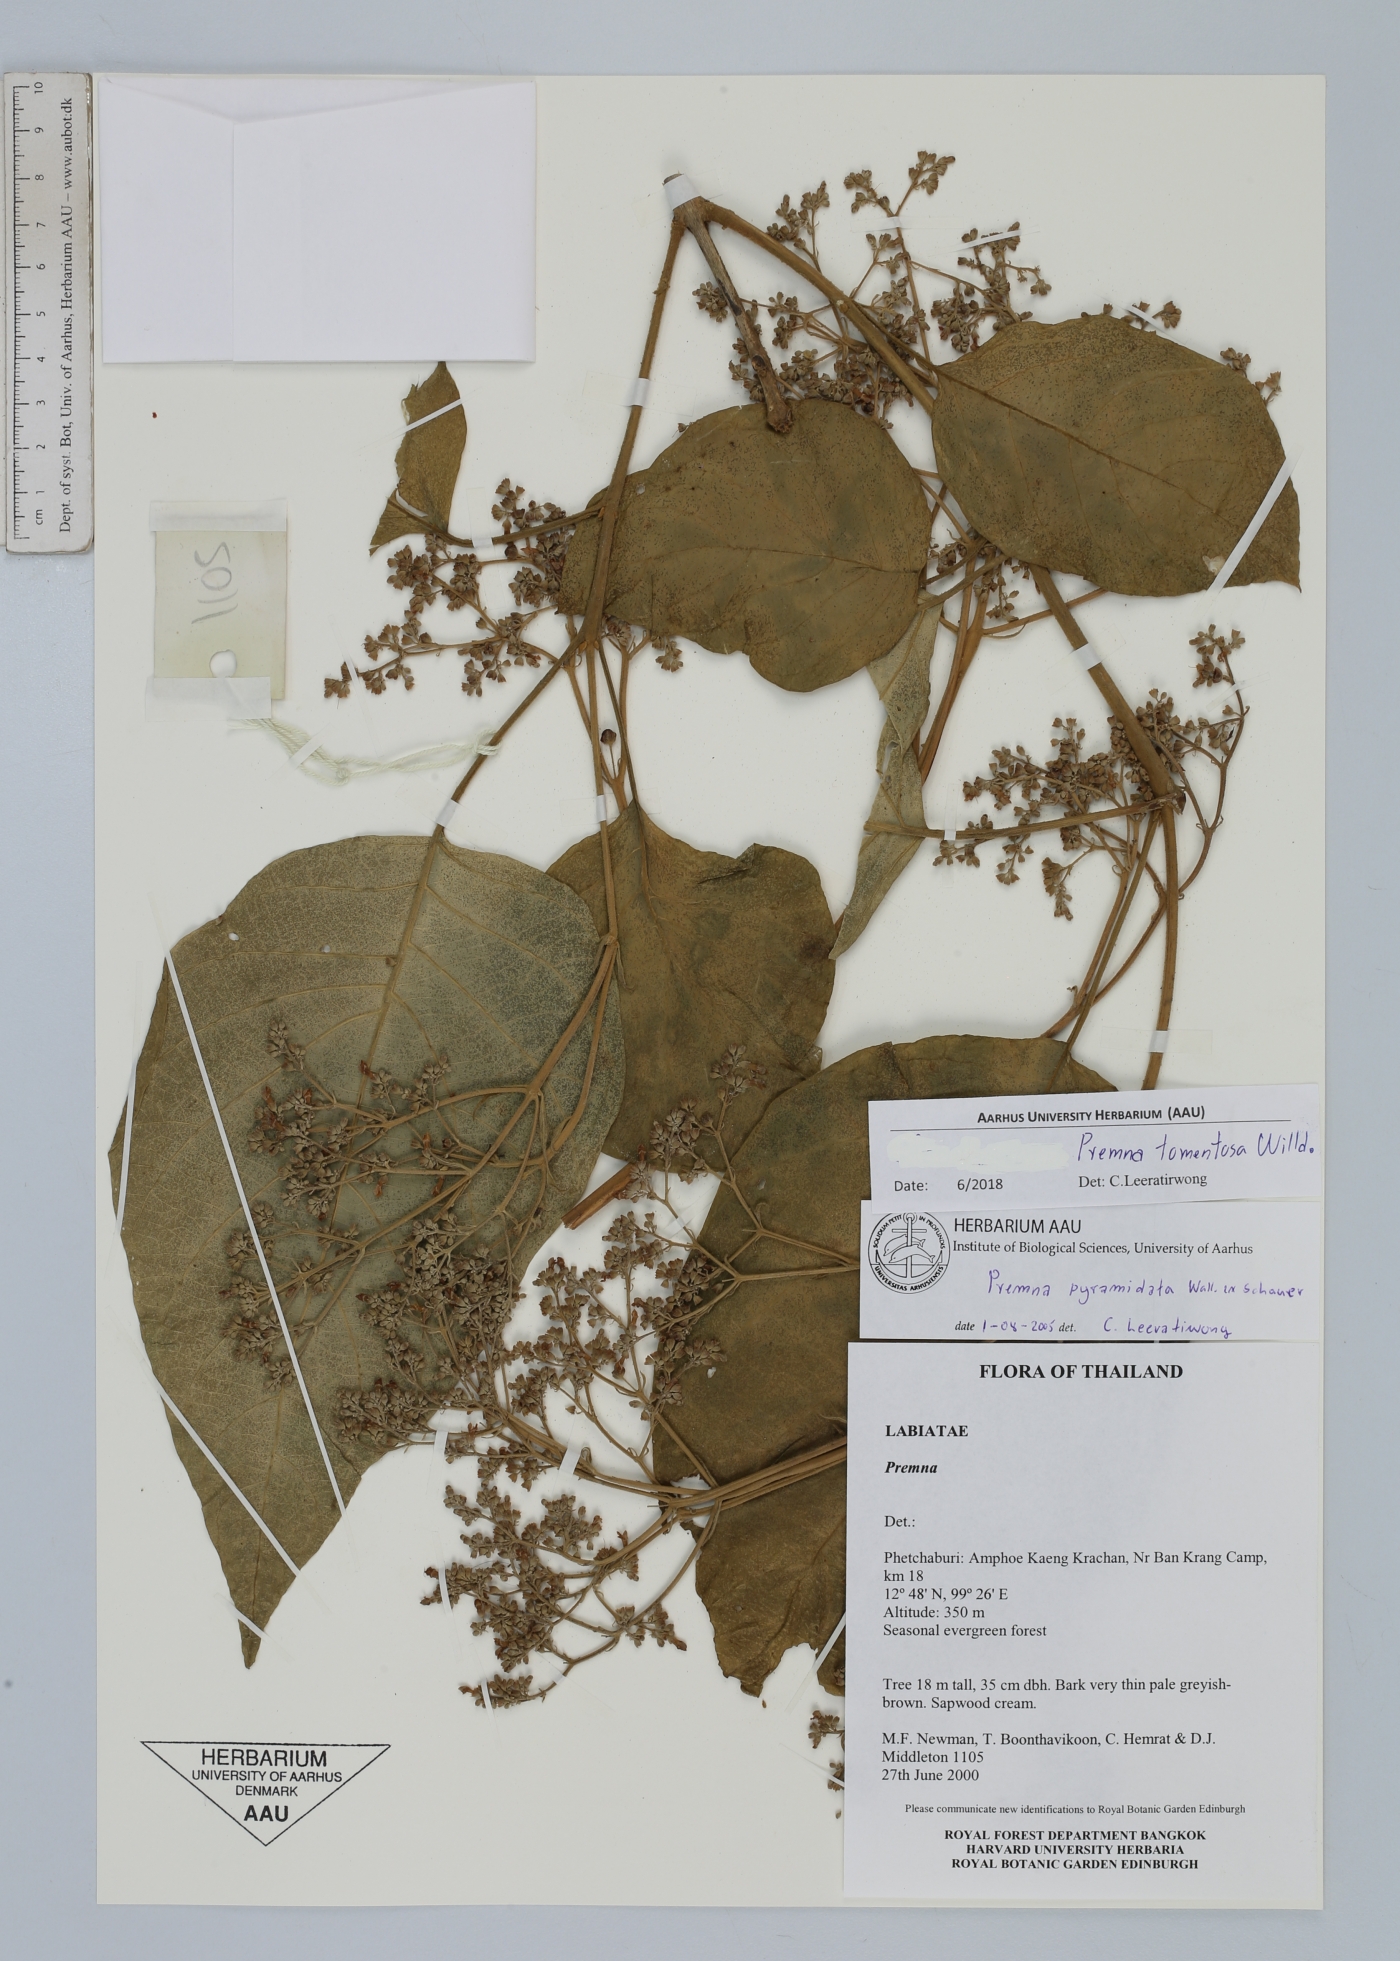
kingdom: Plantae
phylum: Tracheophyta
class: Magnoliopsida
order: Lamiales
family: Lamiaceae
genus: Premna
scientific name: Premna tomentosa
